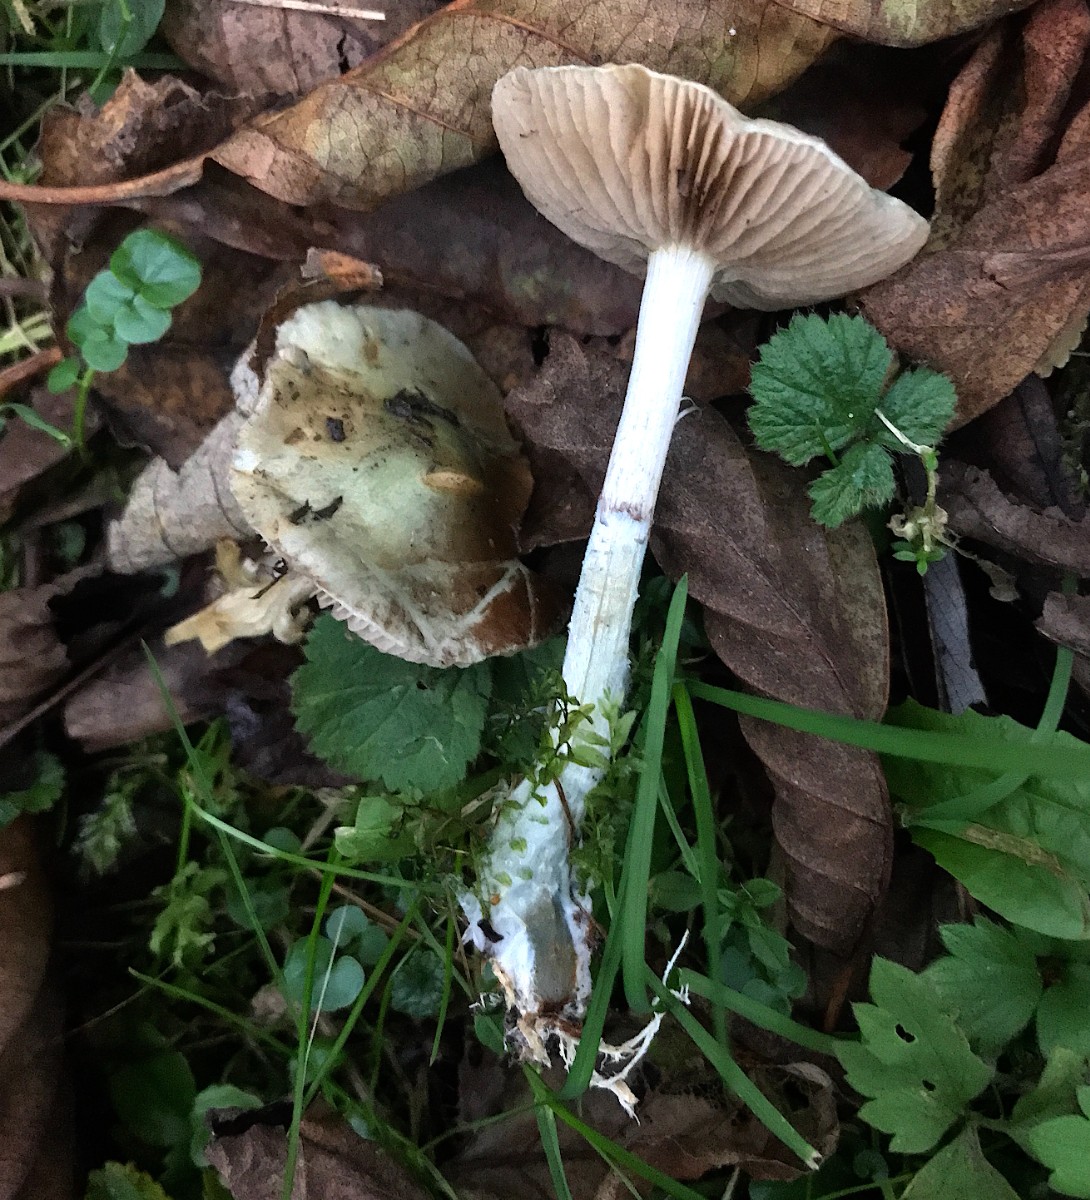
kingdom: Fungi
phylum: Basidiomycota
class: Agaricomycetes
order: Agaricales
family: Strophariaceae
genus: Stropharia
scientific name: Stropharia cyanea
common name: blågrøn bredblad
